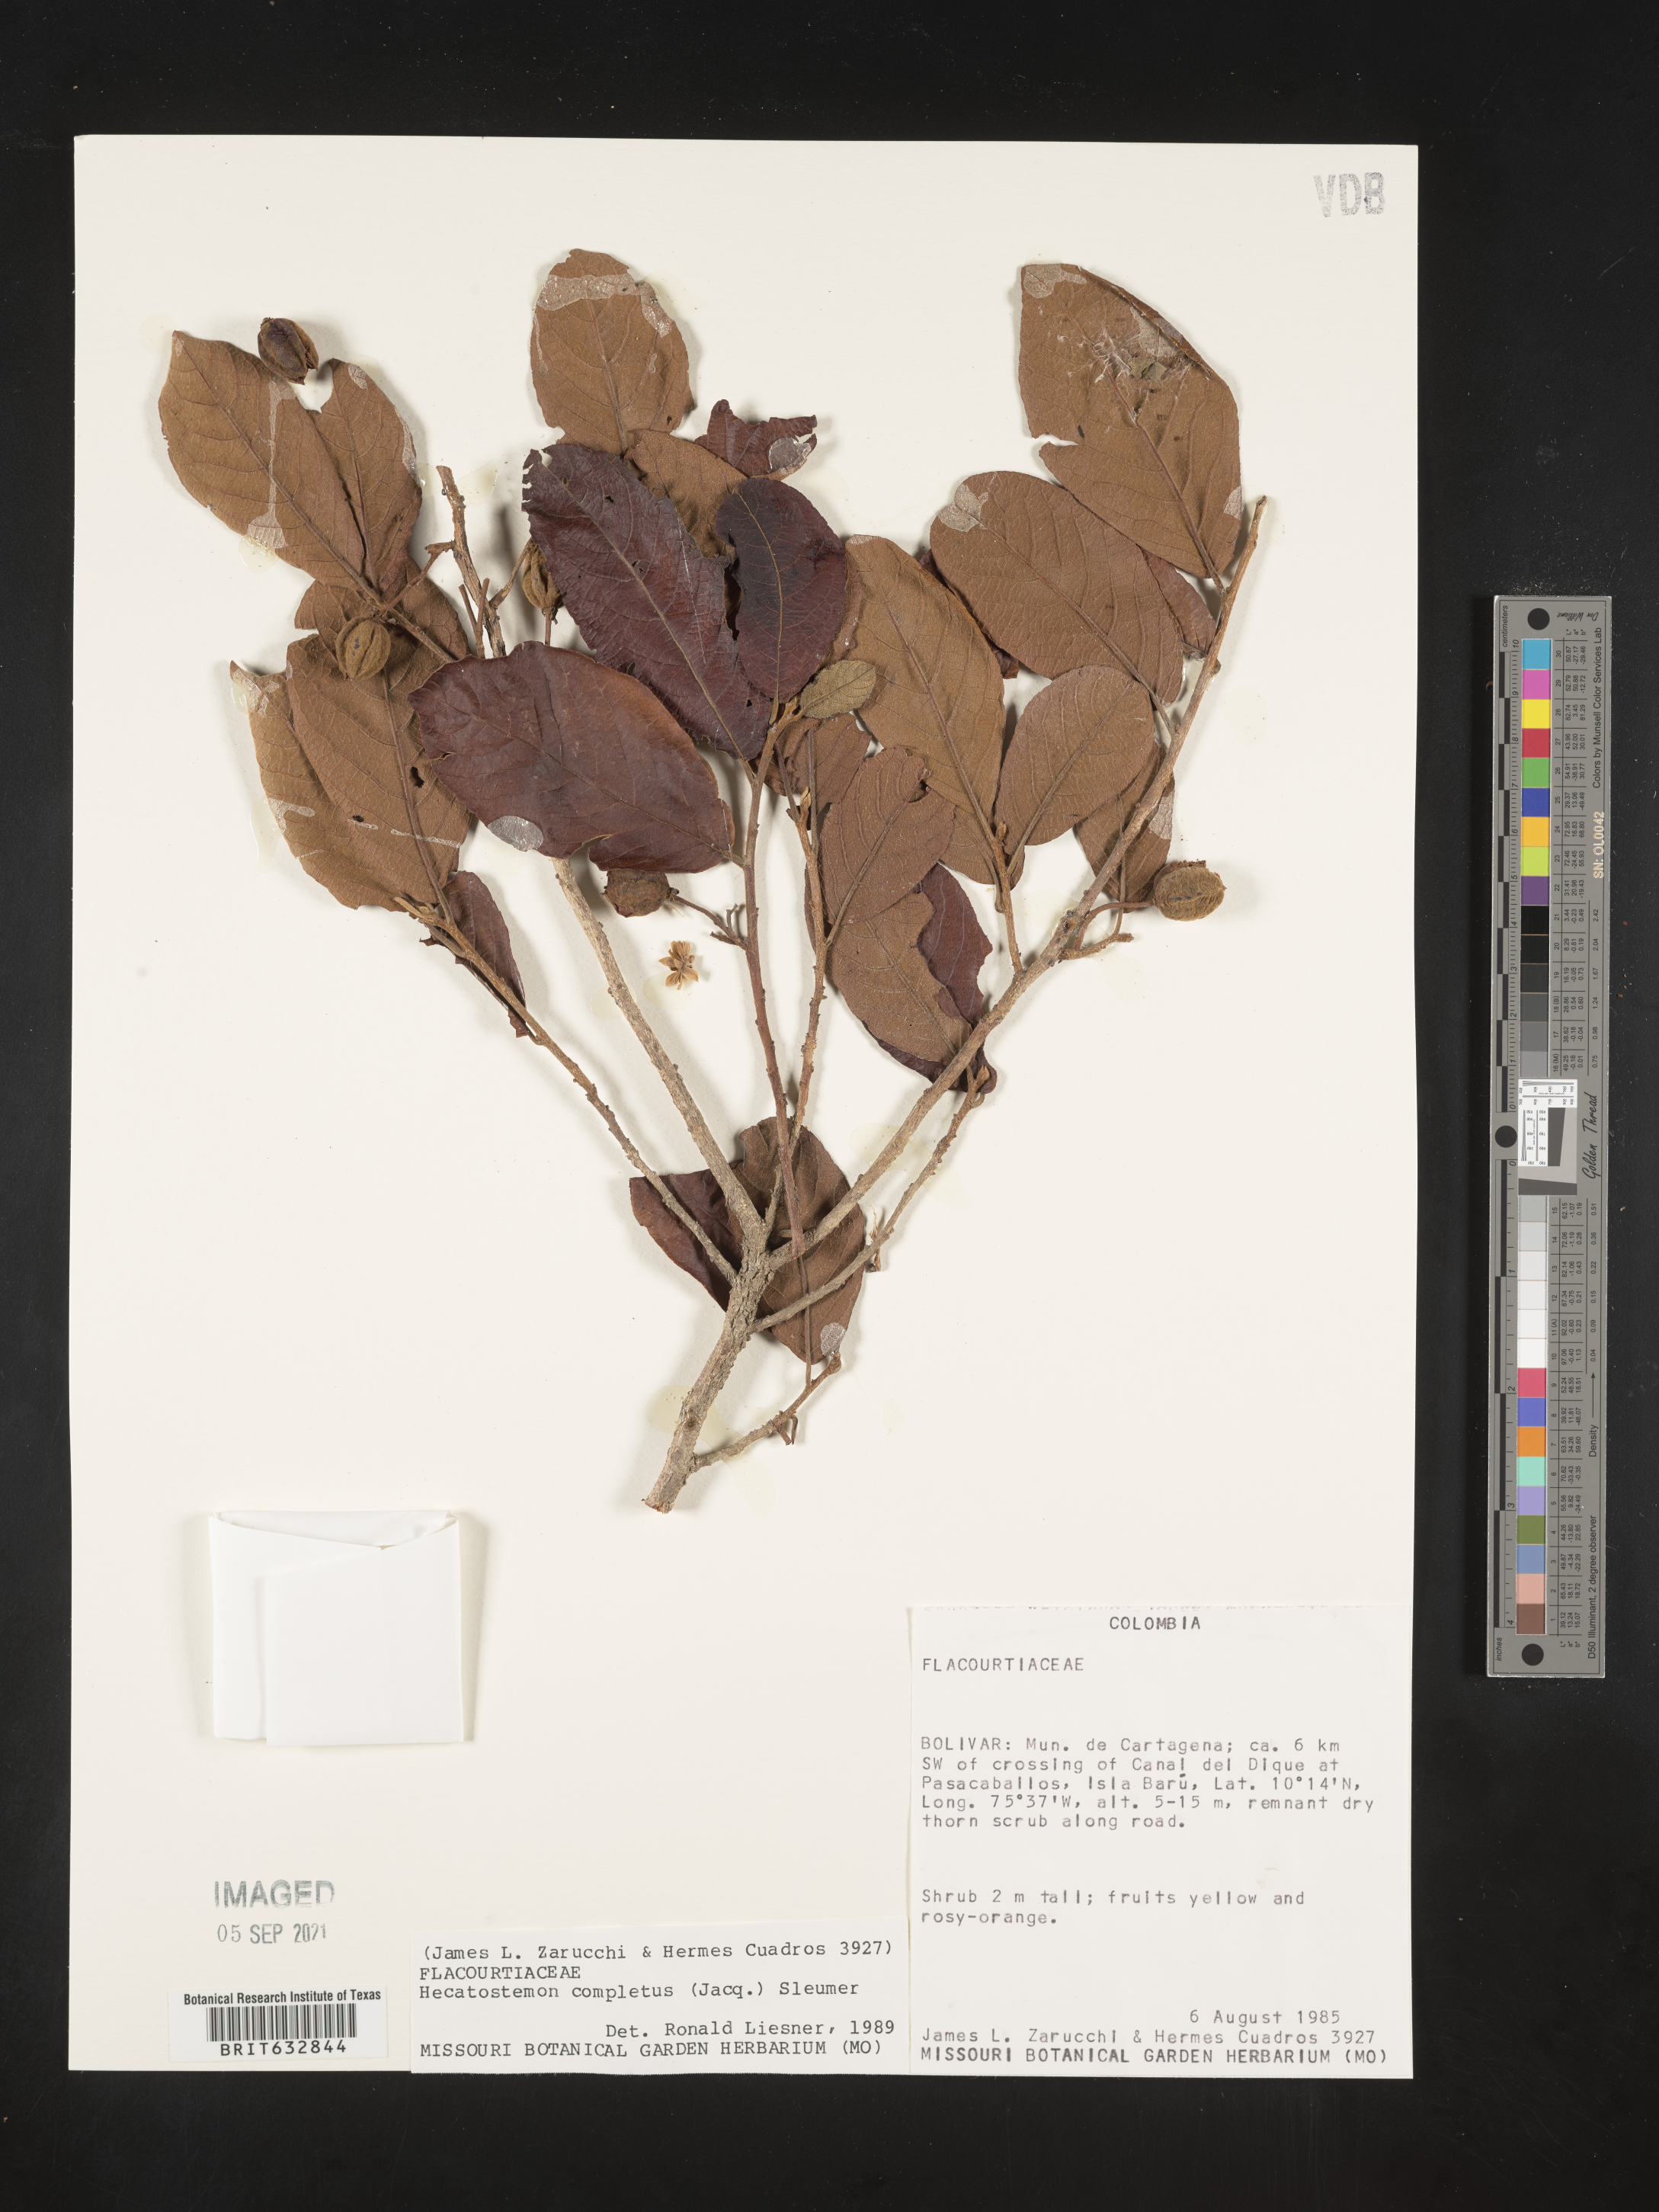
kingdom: Plantae
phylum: Tracheophyta
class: Magnoliopsida
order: Malpighiales
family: Salicaceae
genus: Casearia
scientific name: Casearia
